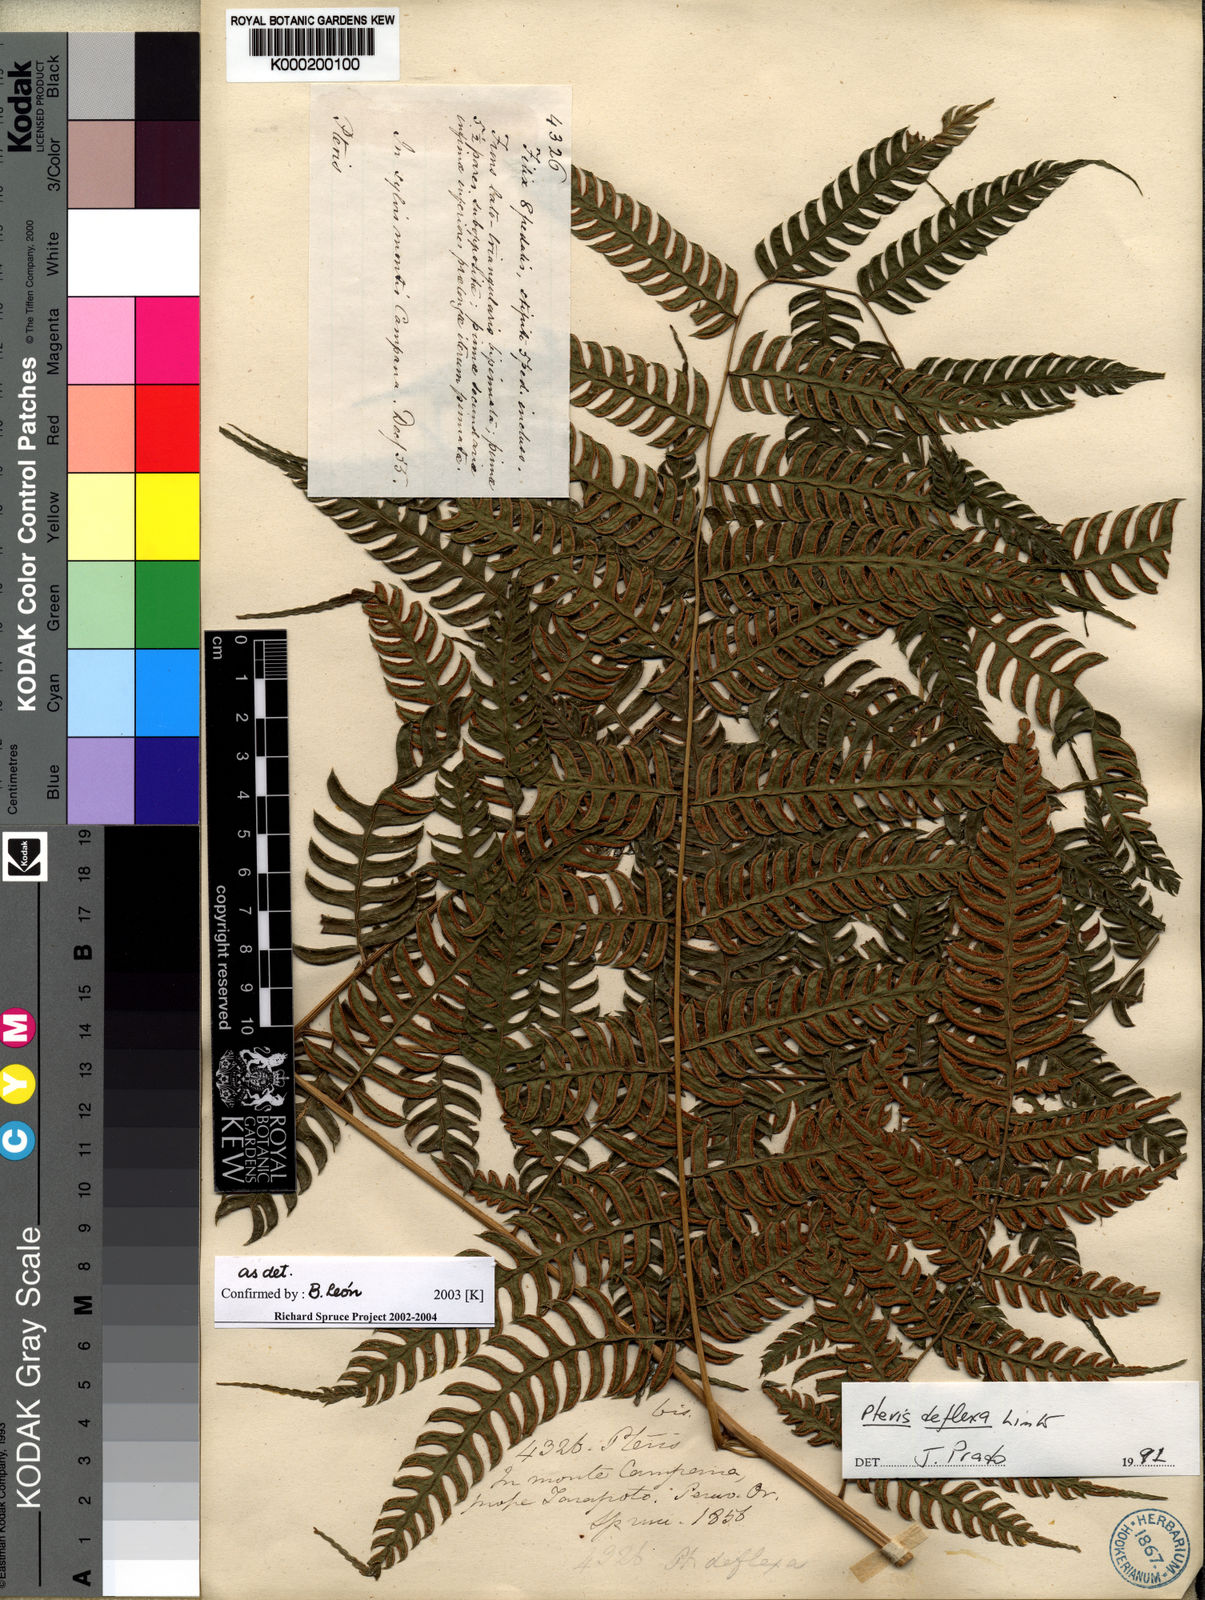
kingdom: Plantae
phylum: Tracheophyta
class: Polypodiopsida
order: Polypodiales
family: Pteridaceae
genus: Pteris
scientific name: Pteris deflexa
